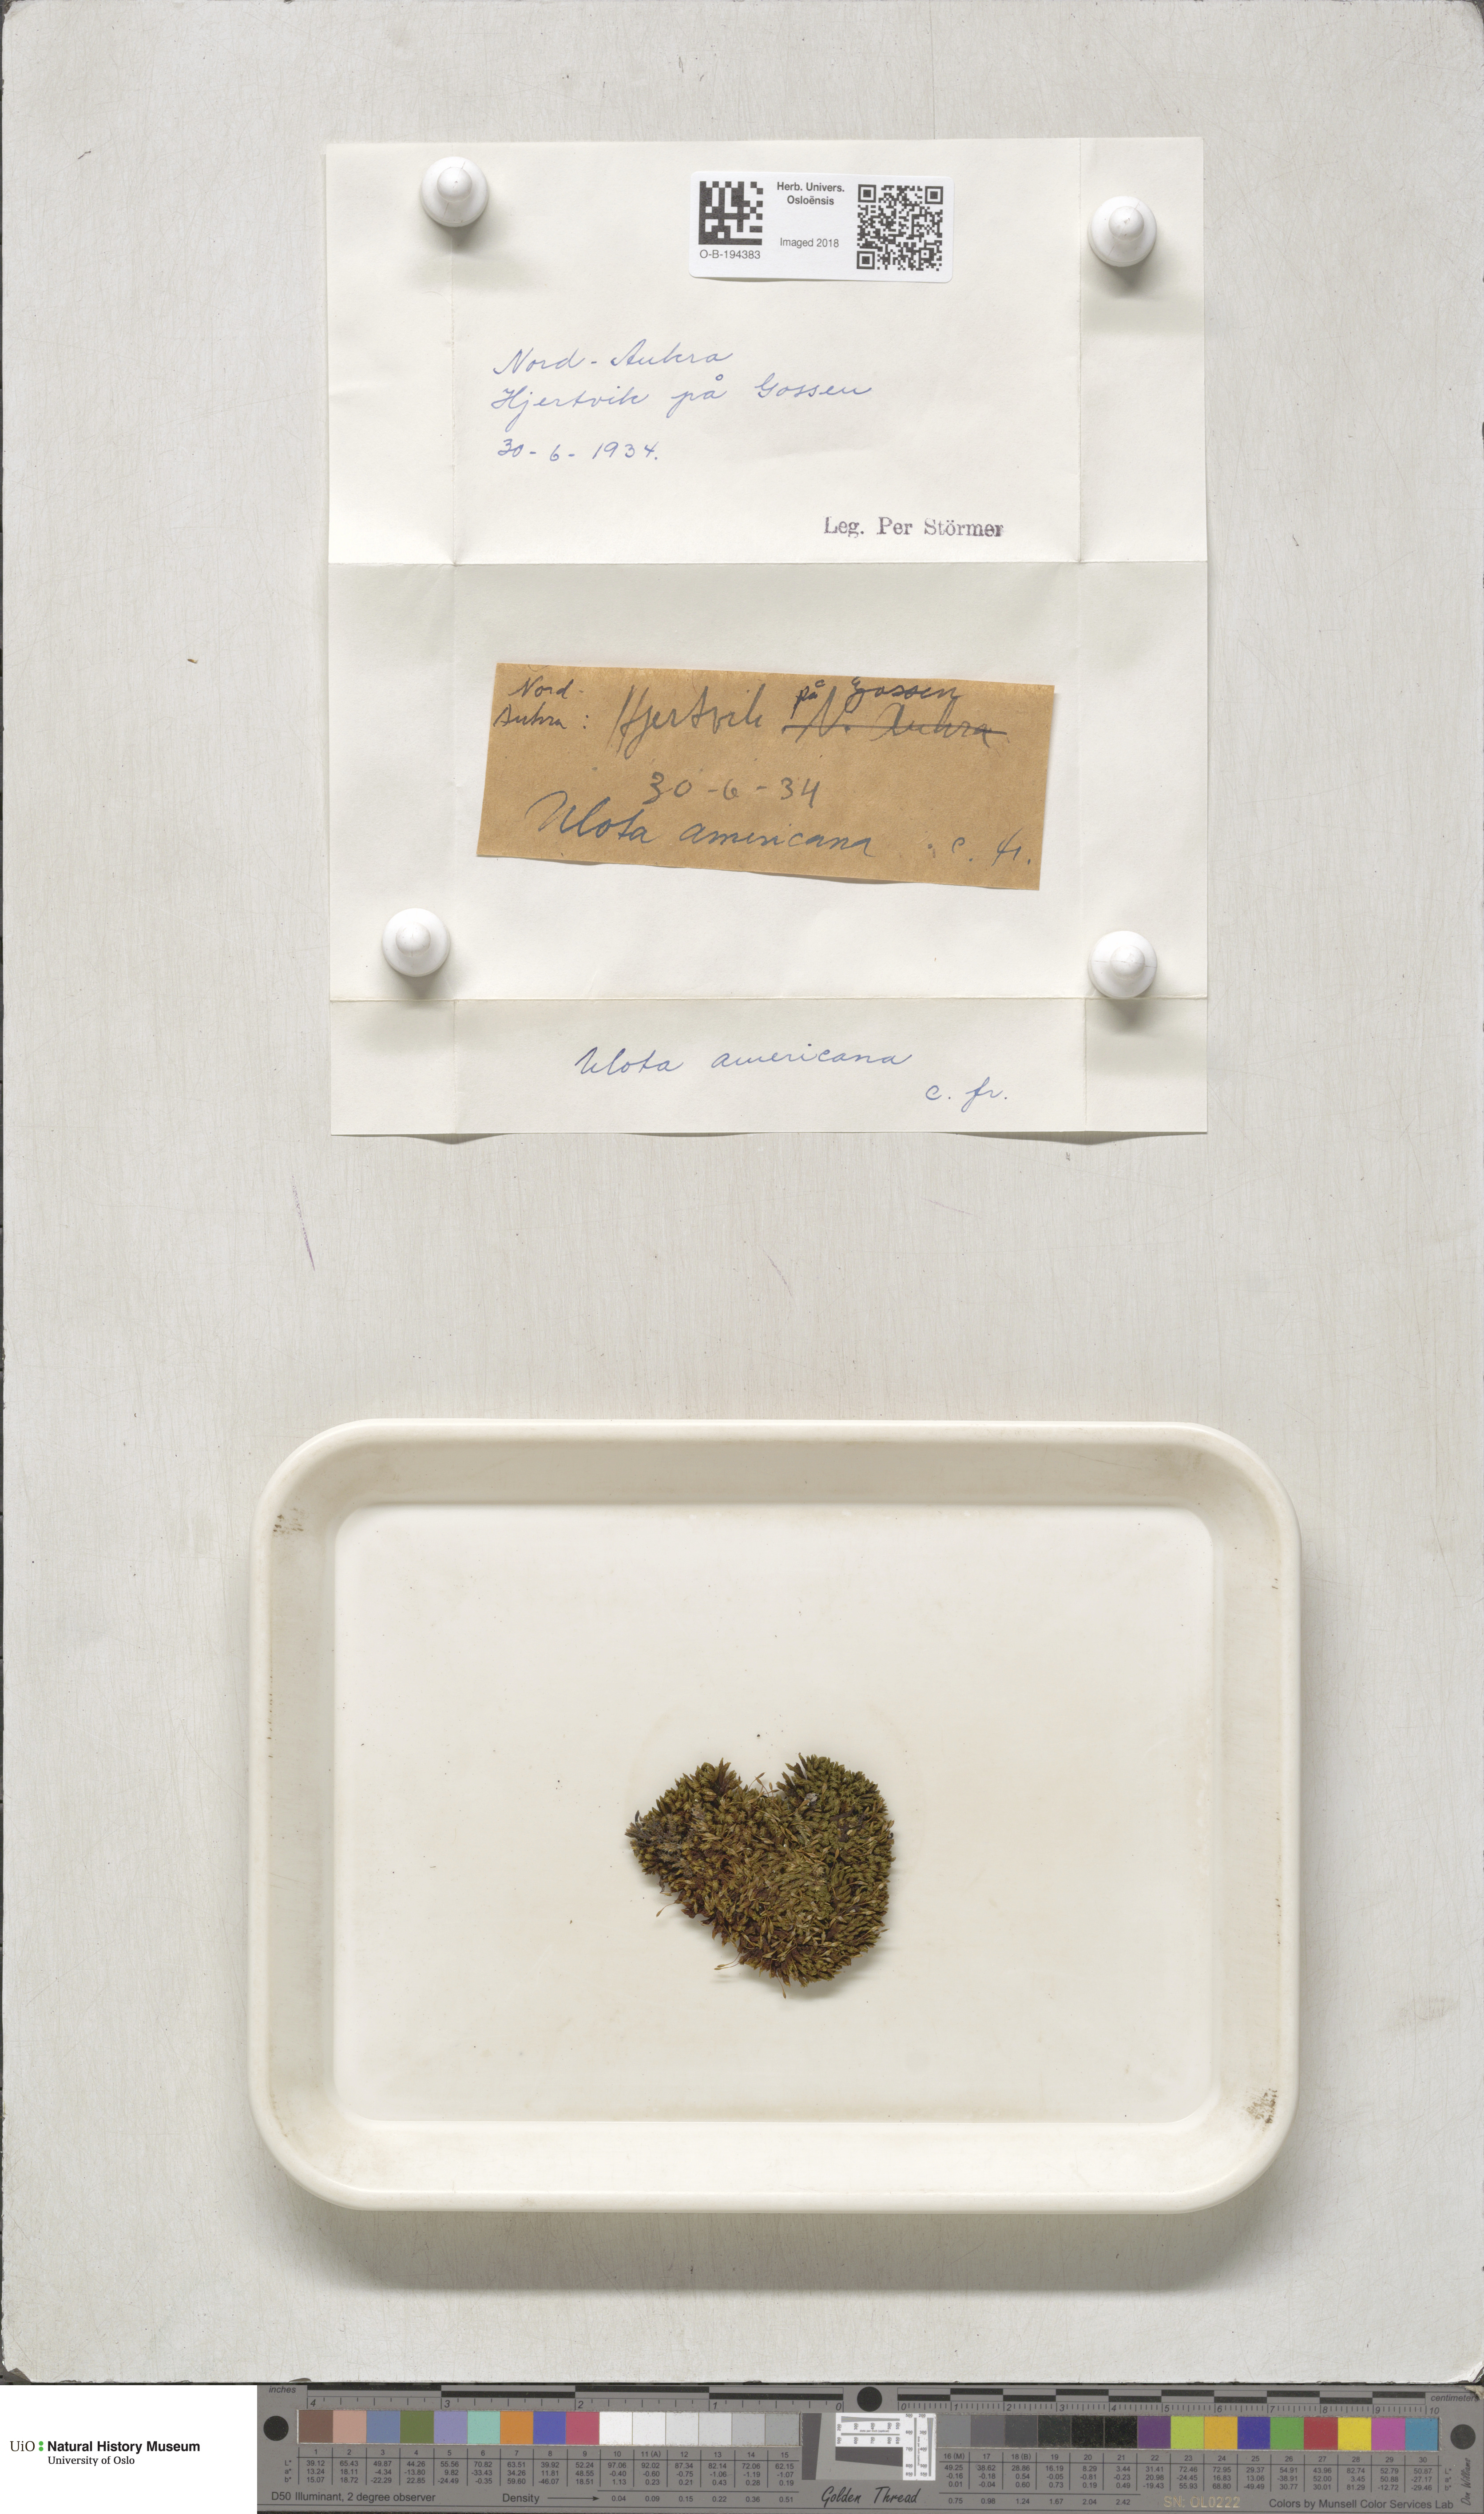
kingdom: Plantae
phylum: Bryophyta
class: Bryopsida
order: Orthotrichales
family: Orthotrichaceae
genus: Ulota
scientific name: Ulota hutchinsiae
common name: Hutchins' pincushion
